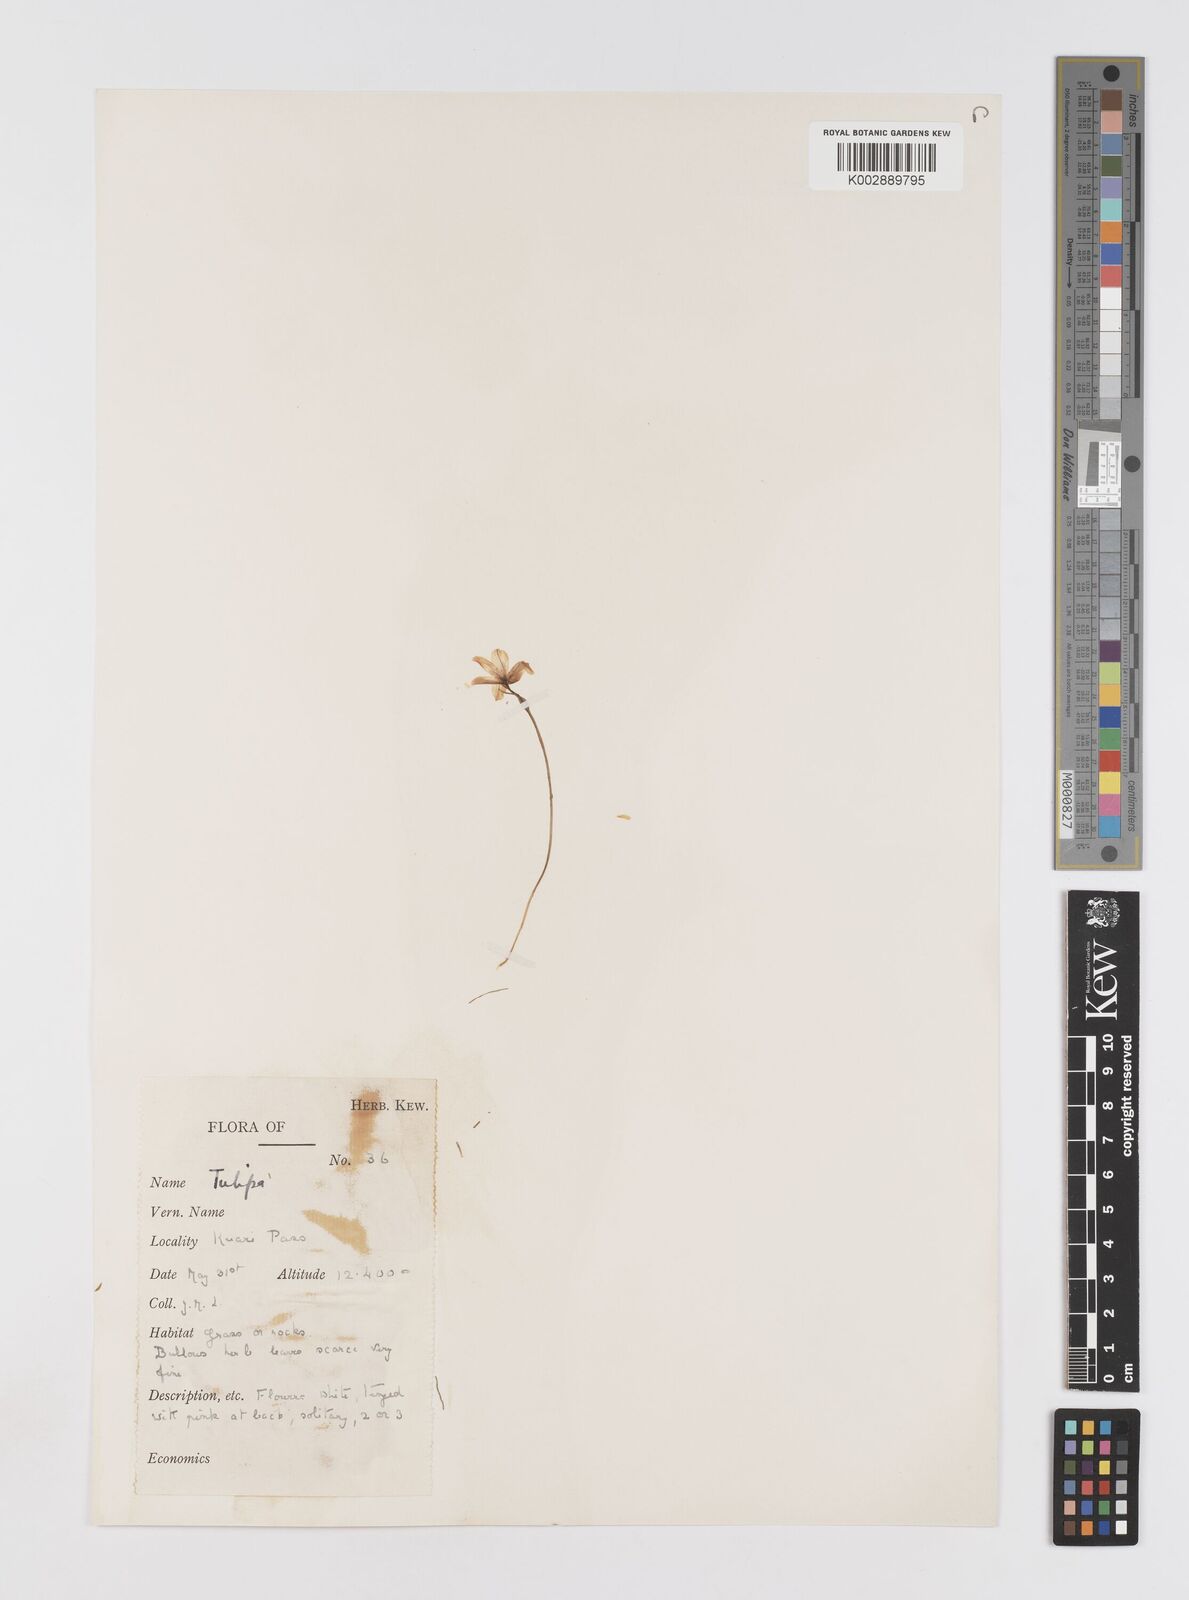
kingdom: Plantae
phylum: Tracheophyta
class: Liliopsida
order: Liliales
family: Liliaceae
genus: Gagea
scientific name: Gagea serotina
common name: Snowdon lily
